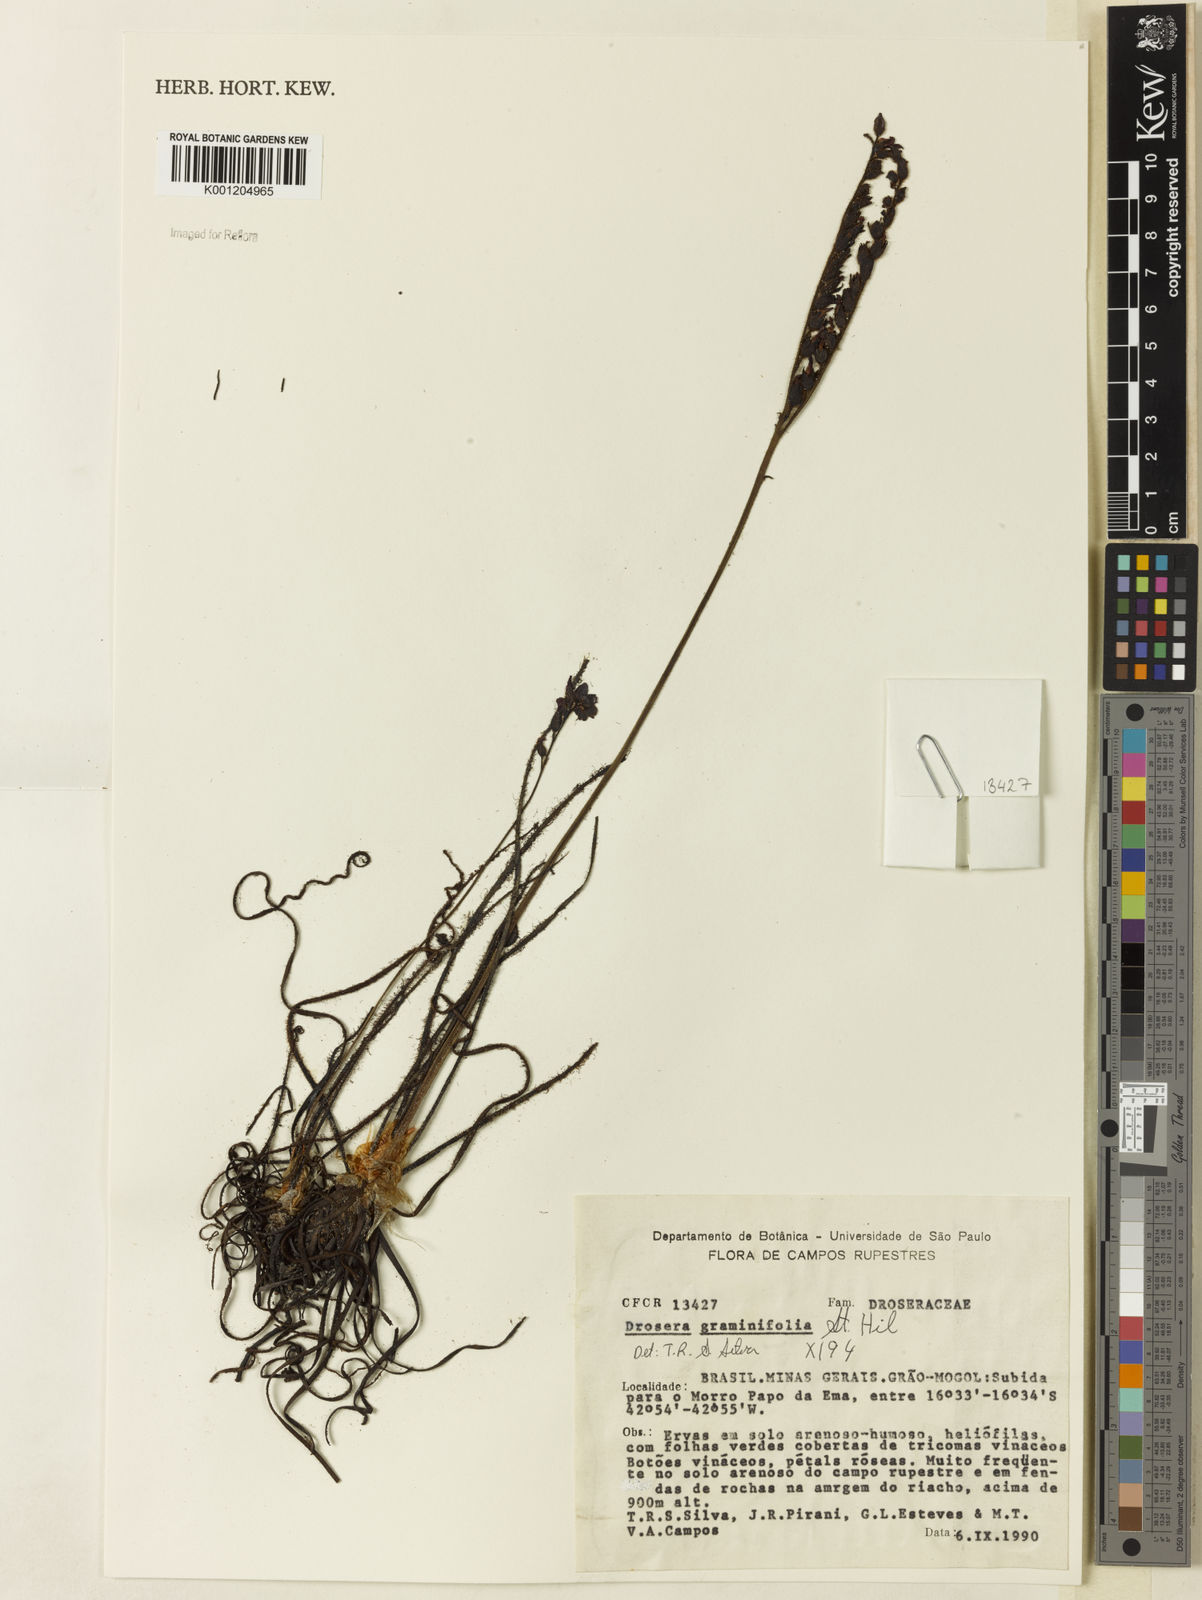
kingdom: Plantae
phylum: Tracheophyta
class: Magnoliopsida
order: Caryophyllales
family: Droseraceae
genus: Drosera
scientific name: Drosera graminifolia
